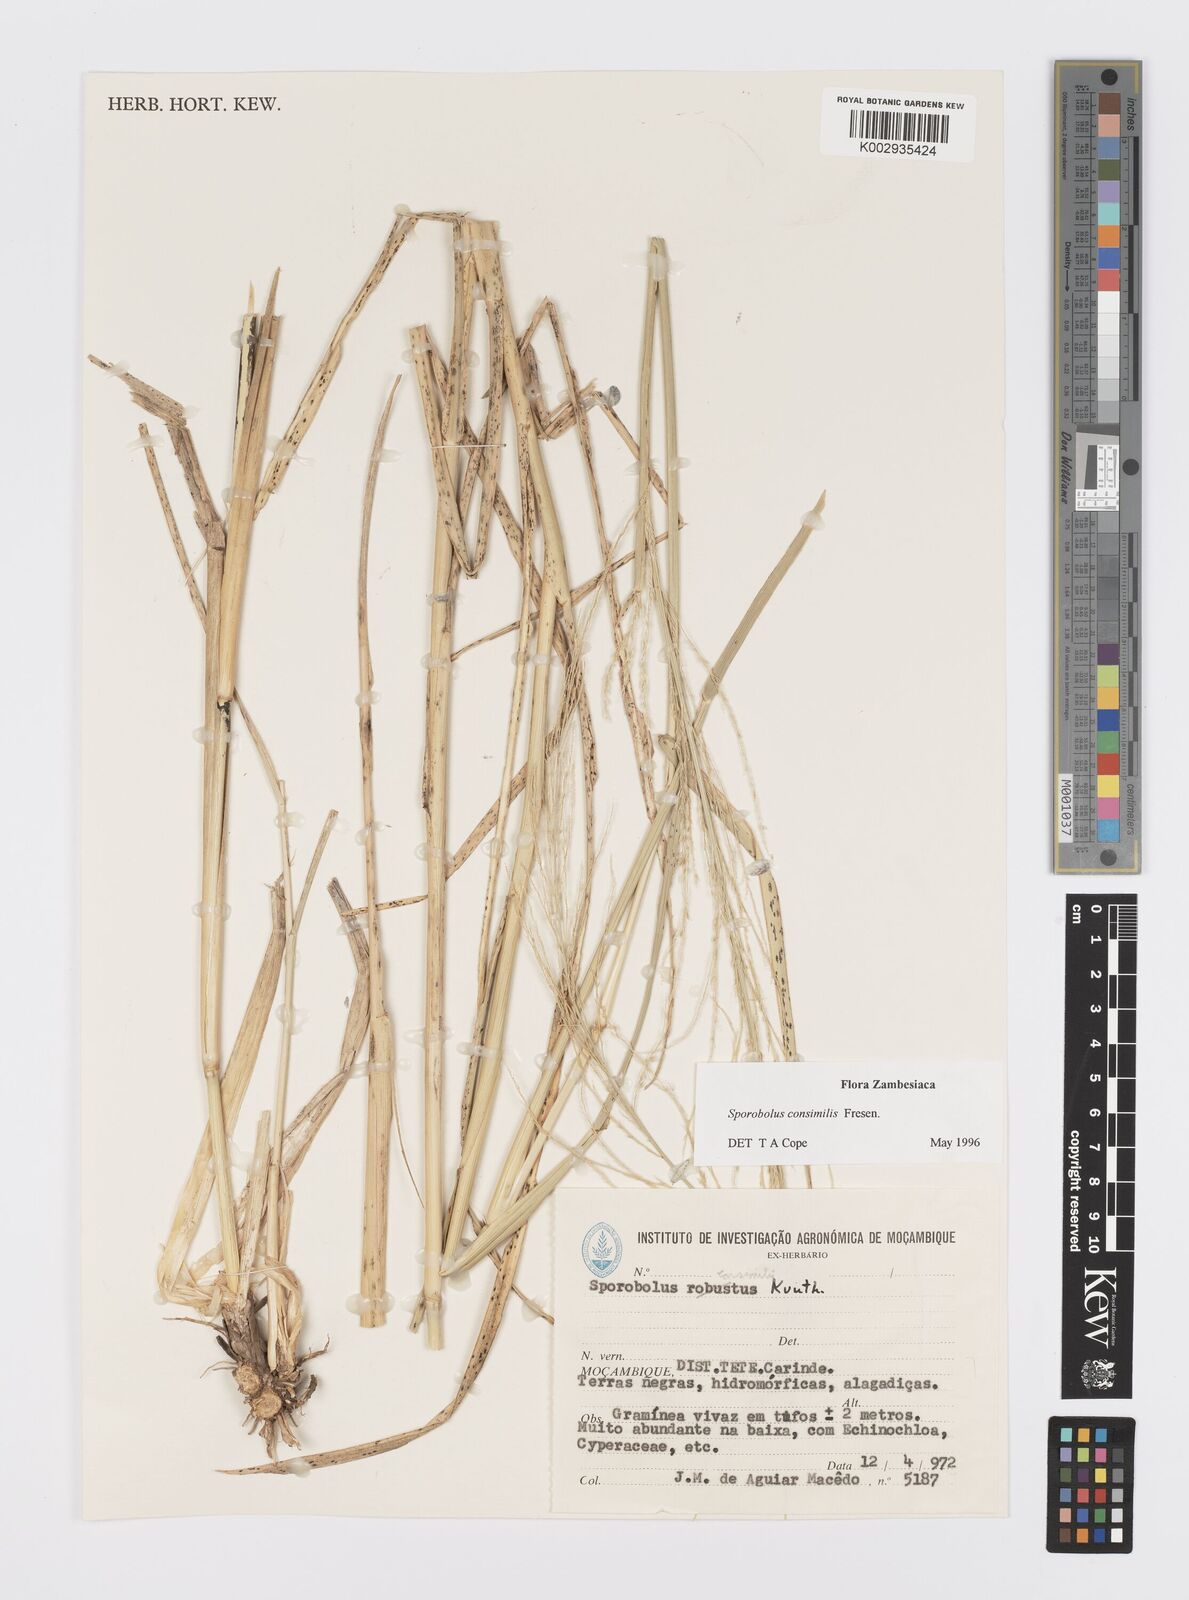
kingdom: Plantae
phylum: Tracheophyta
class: Liliopsida
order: Poales
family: Poaceae
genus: Sporobolus
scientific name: Sporobolus consimilis
